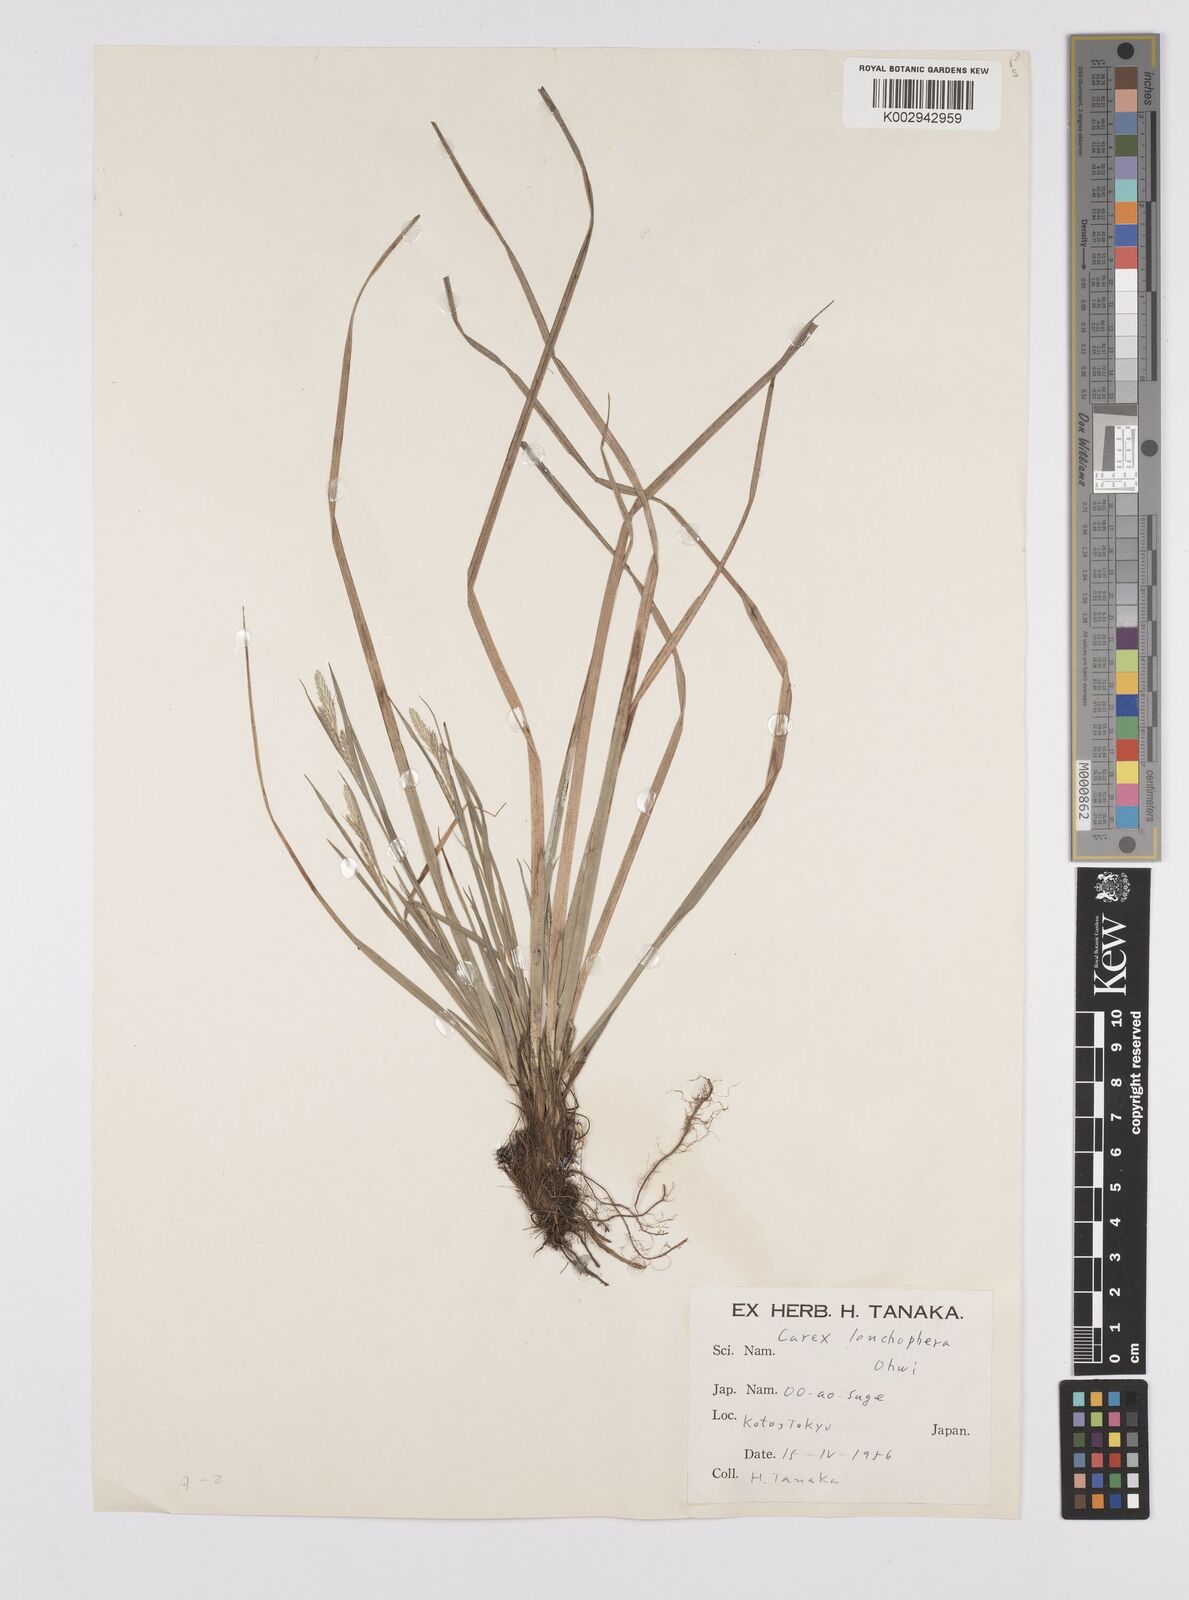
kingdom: Plantae
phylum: Tracheophyta
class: Liliopsida
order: Poales
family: Cyperaceae
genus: Carex
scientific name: Carex breviculmis
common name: Asian shortstem sedge
